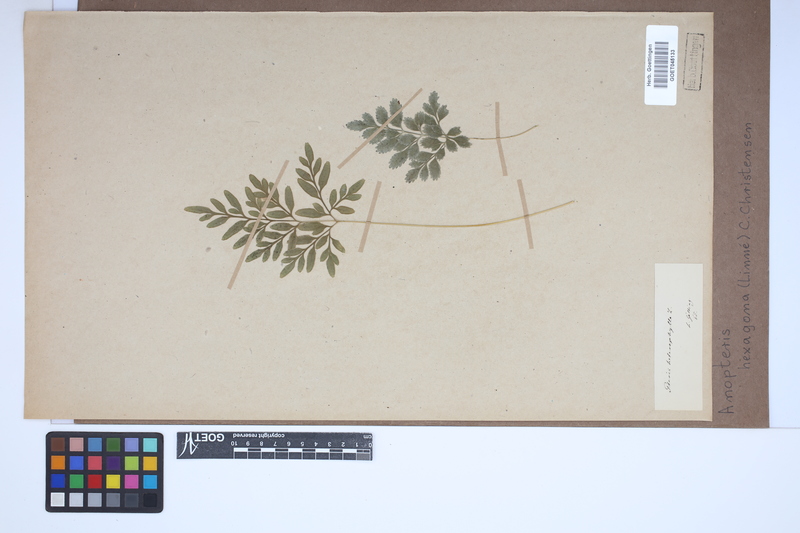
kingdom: Plantae
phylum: Tracheophyta
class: Polypodiopsida
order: Polypodiales
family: Pteridaceae
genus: Pteris
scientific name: Pteris hexagona
